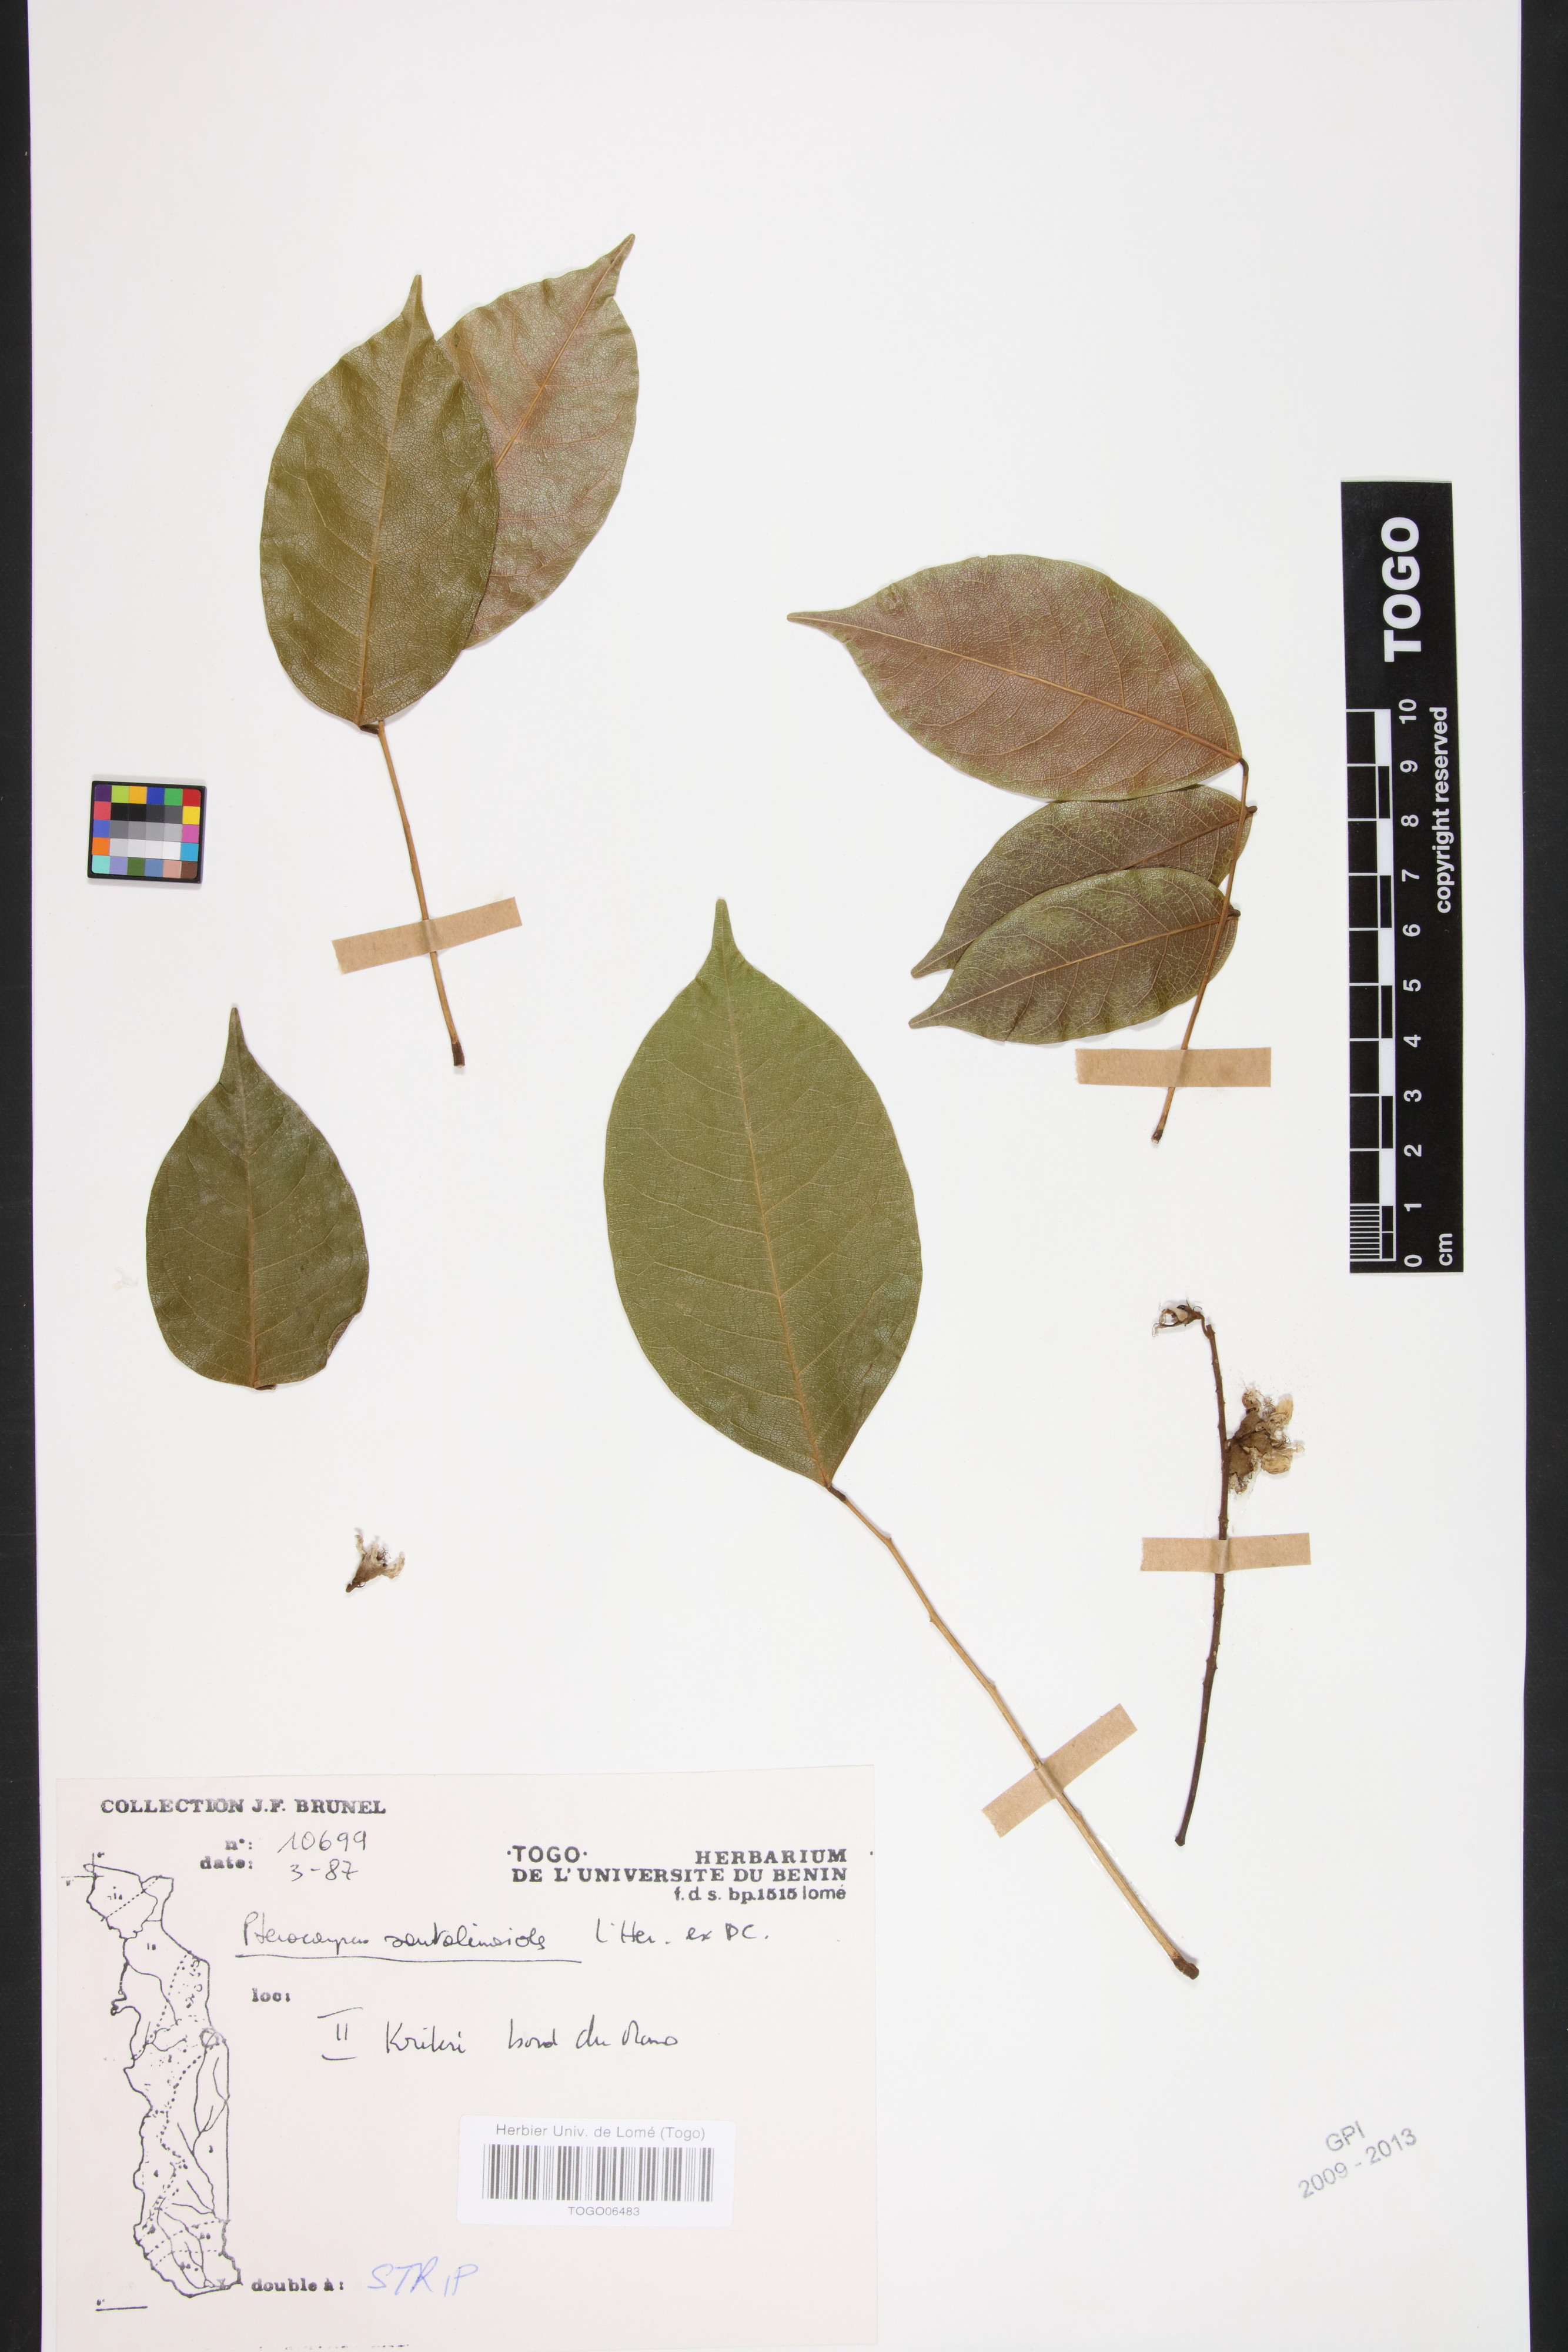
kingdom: Plantae
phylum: Tracheophyta
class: Magnoliopsida
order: Fabales
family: Fabaceae
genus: Pterocarpus
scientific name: Pterocarpus santalinoides
